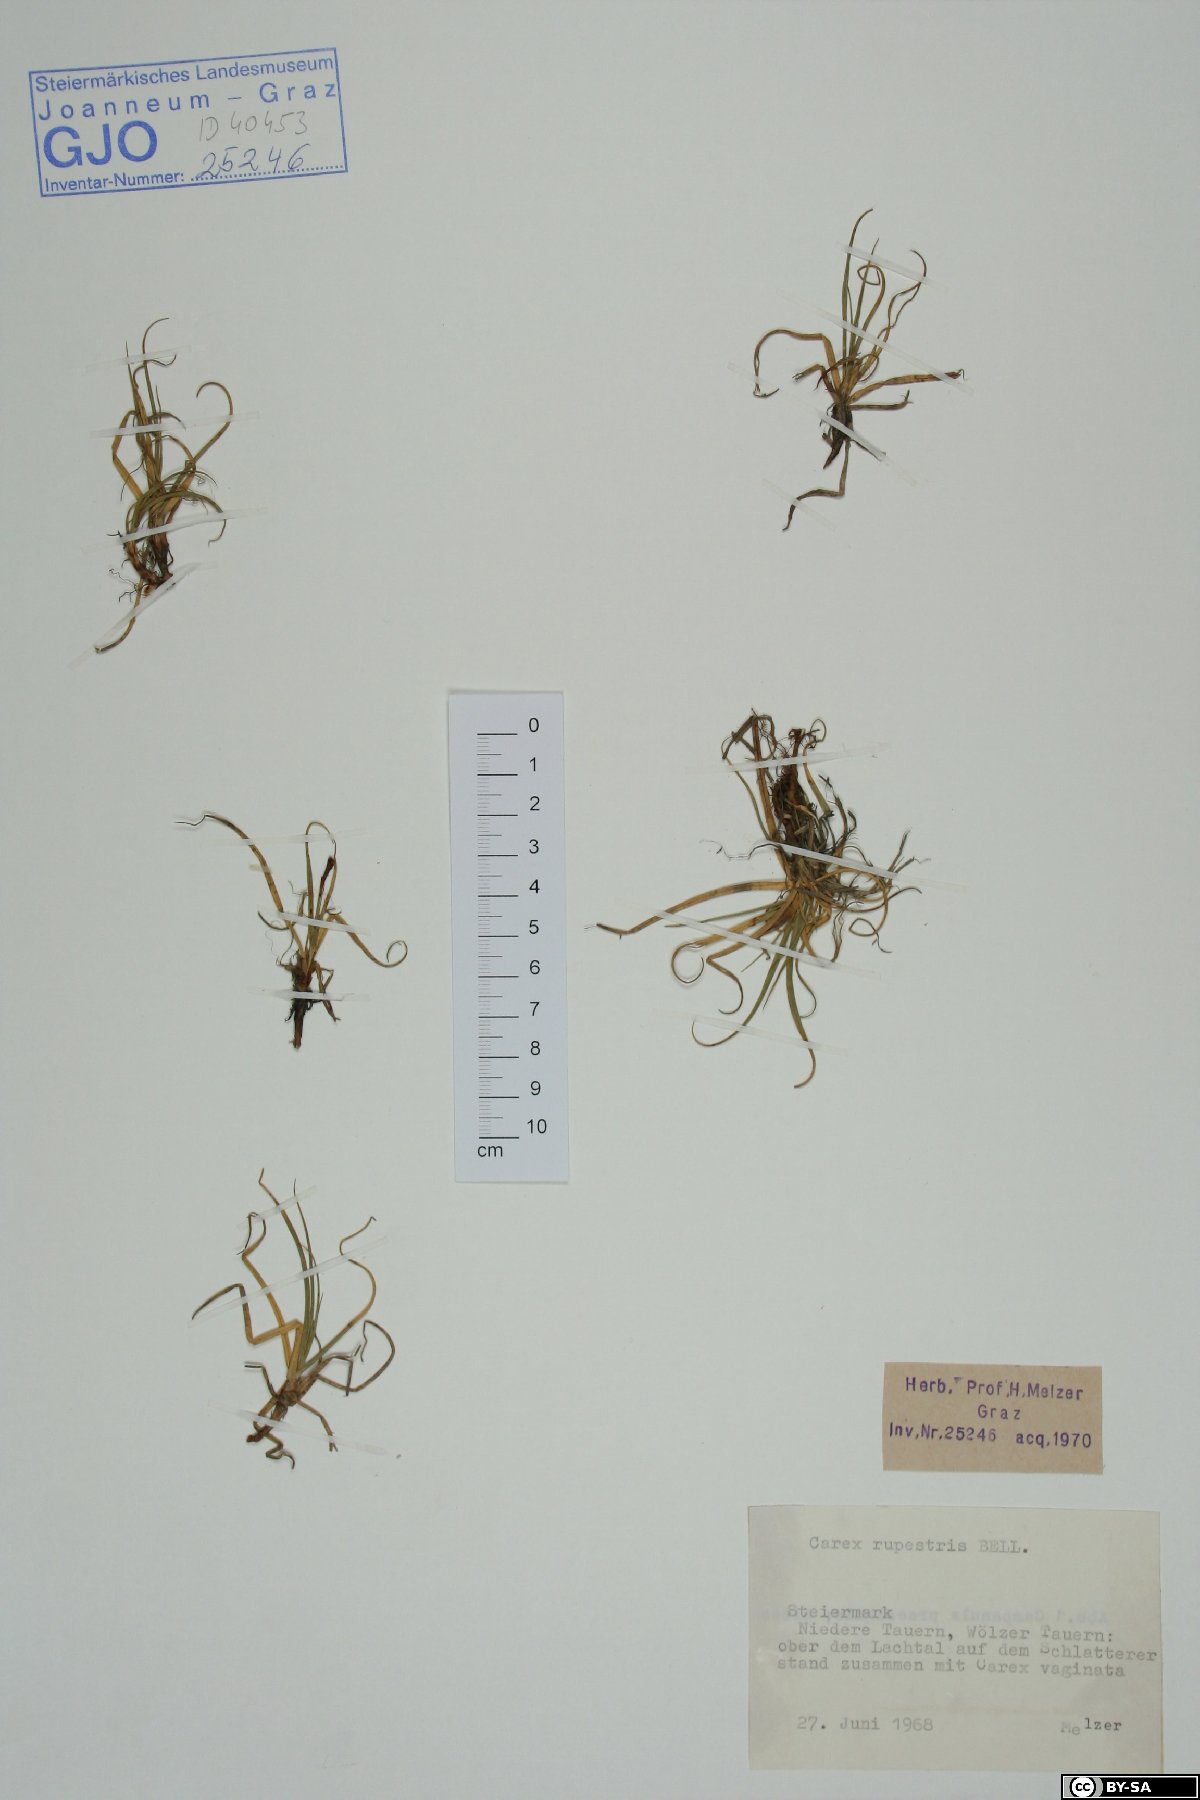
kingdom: Plantae
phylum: Tracheophyta
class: Liliopsida
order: Poales
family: Cyperaceae
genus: Carex
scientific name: Carex rupestris
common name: Rock sedge
